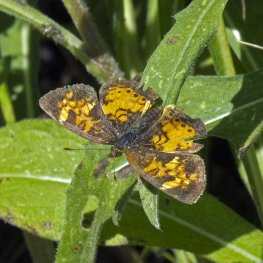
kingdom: Animalia
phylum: Arthropoda
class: Insecta
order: Lepidoptera
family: Nymphalidae
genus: Phyciodes
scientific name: Phyciodes tharos
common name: Northern Crescent
